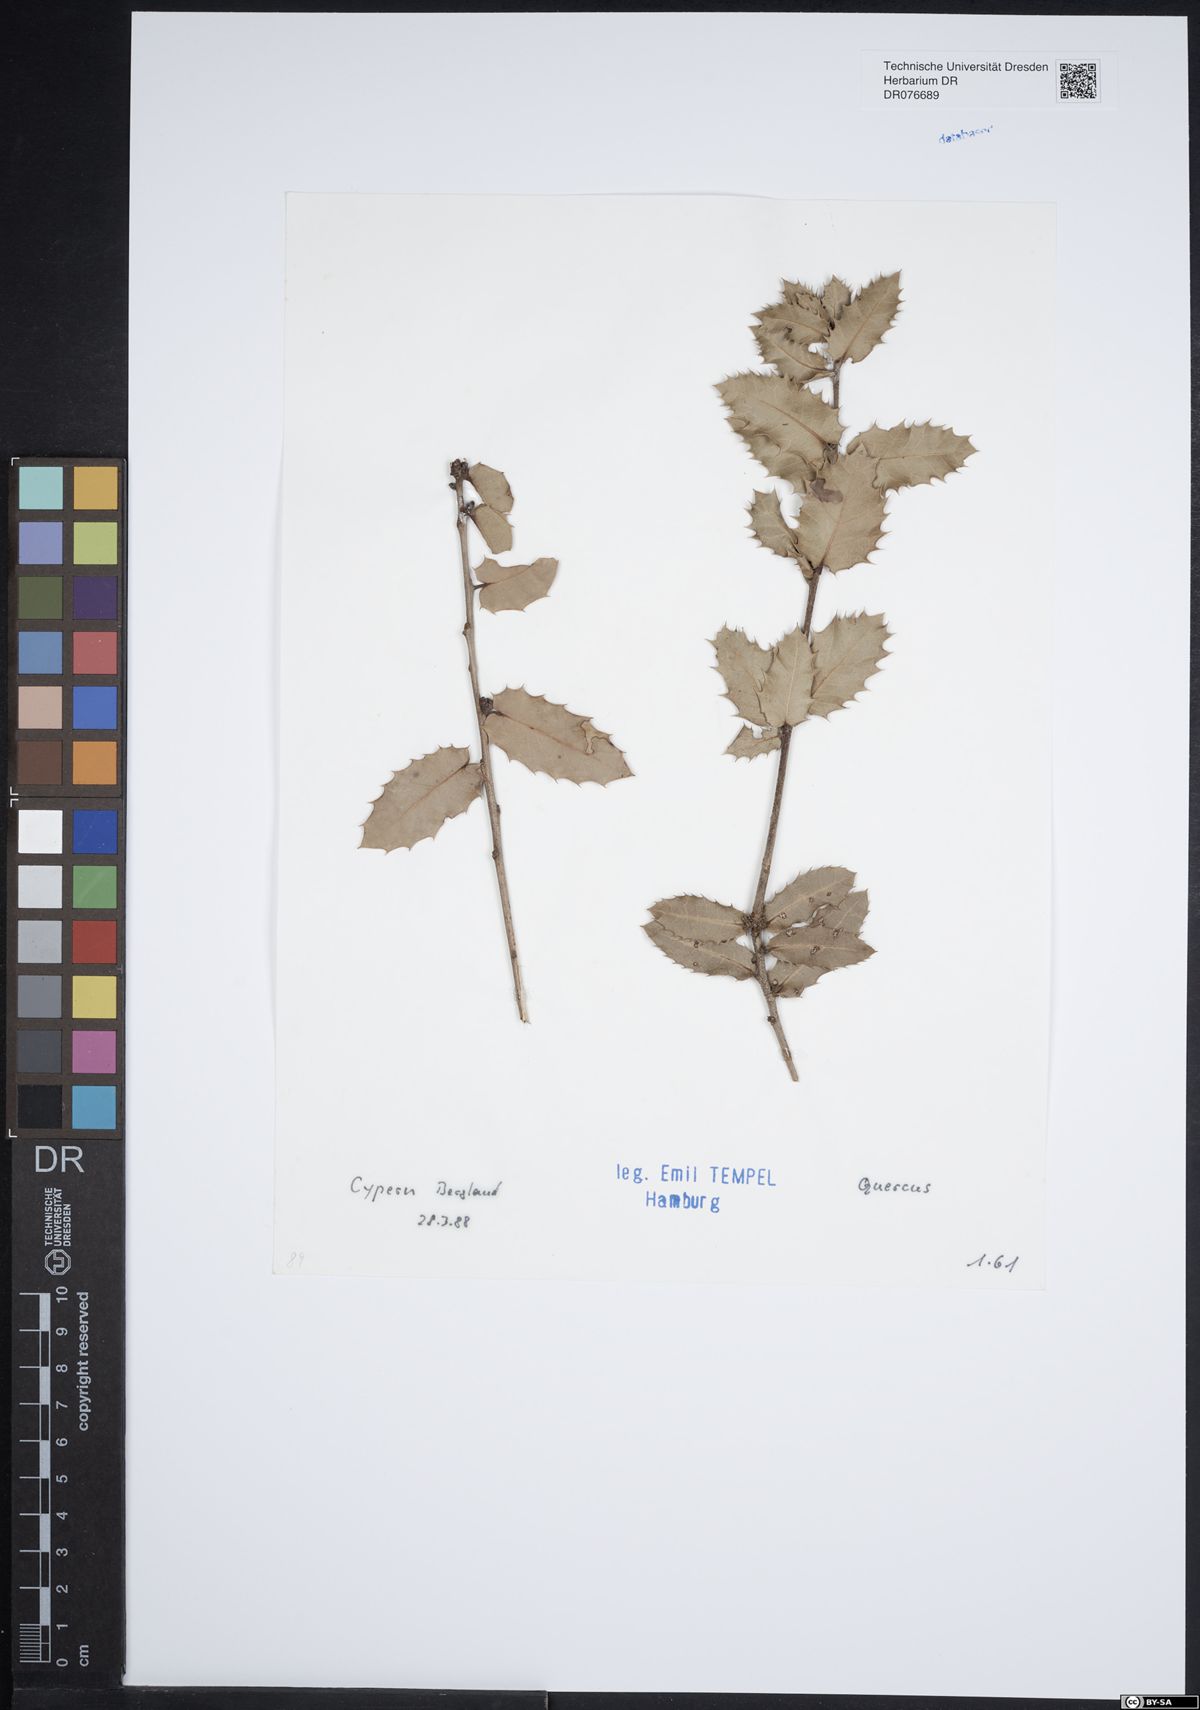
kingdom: Plantae
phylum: Tracheophyta
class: Magnoliopsida
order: Fagales
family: Fagaceae
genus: Quercus
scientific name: Quercus
